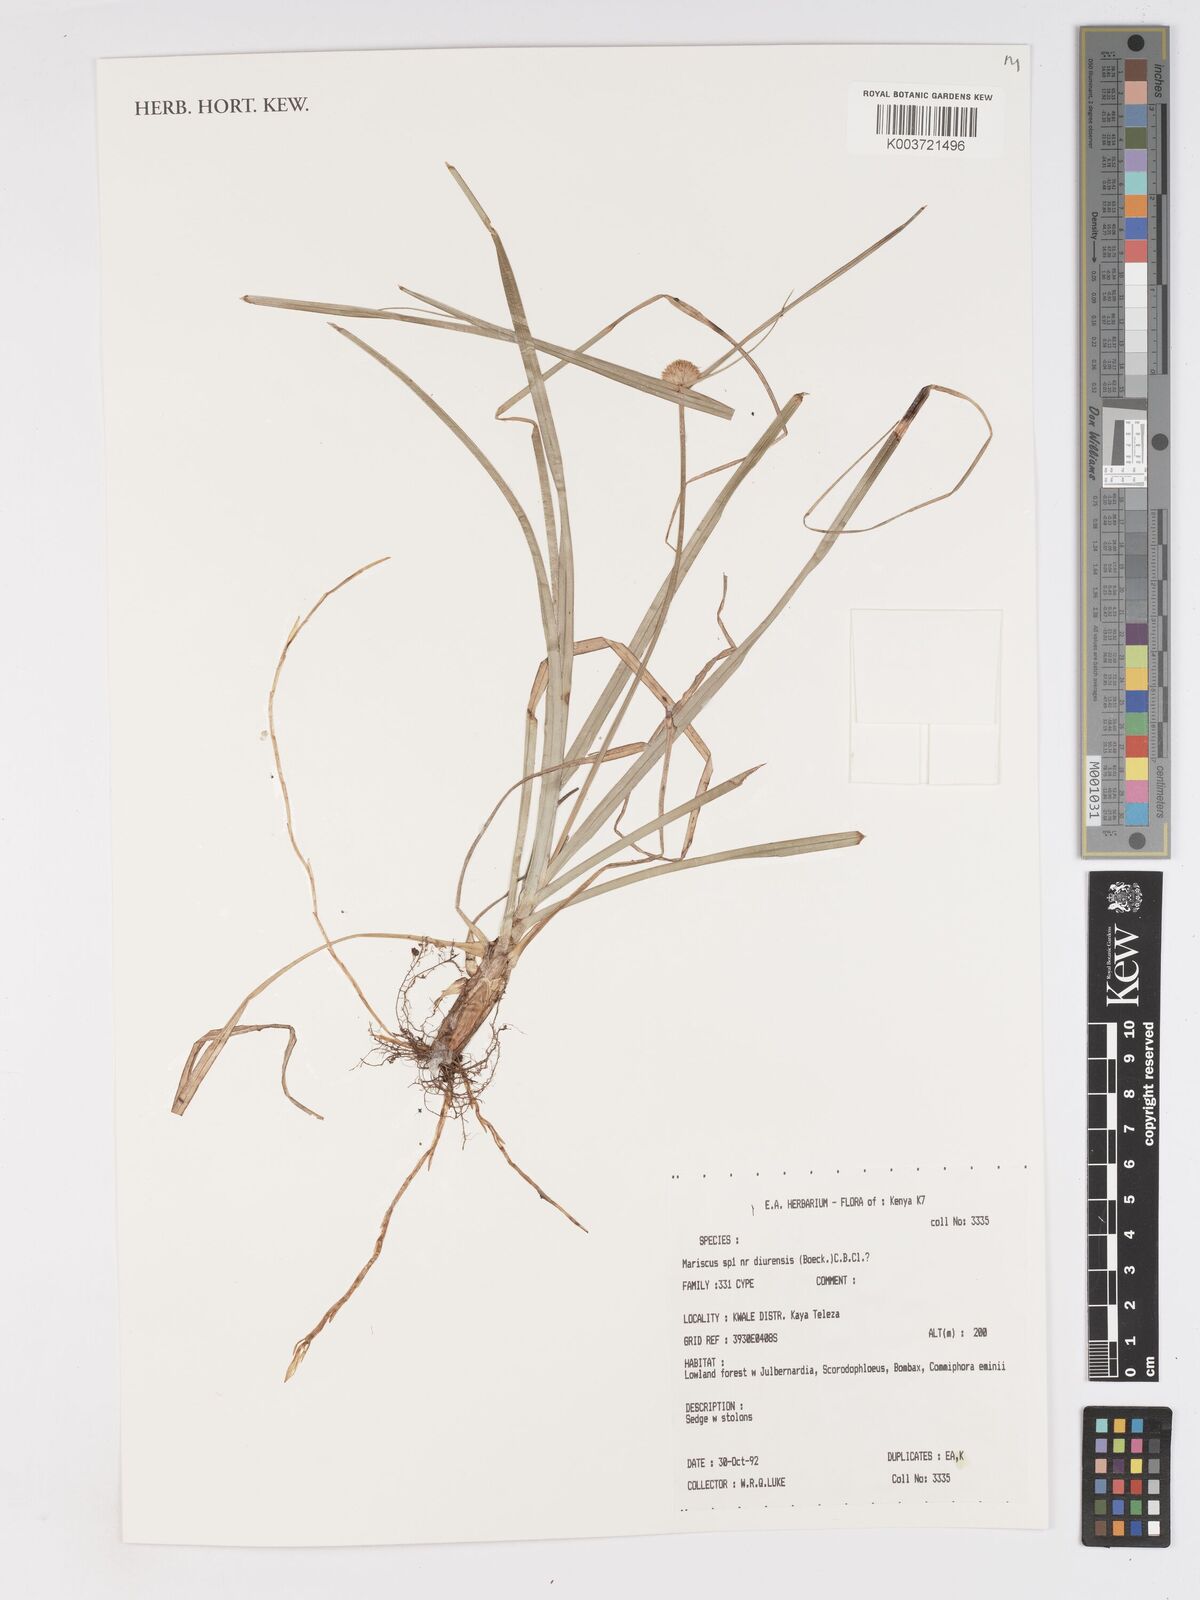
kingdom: Plantae
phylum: Tracheophyta
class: Liliopsida
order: Poales
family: Cyperaceae
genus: Cyperus
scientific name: Cyperus diurensis
